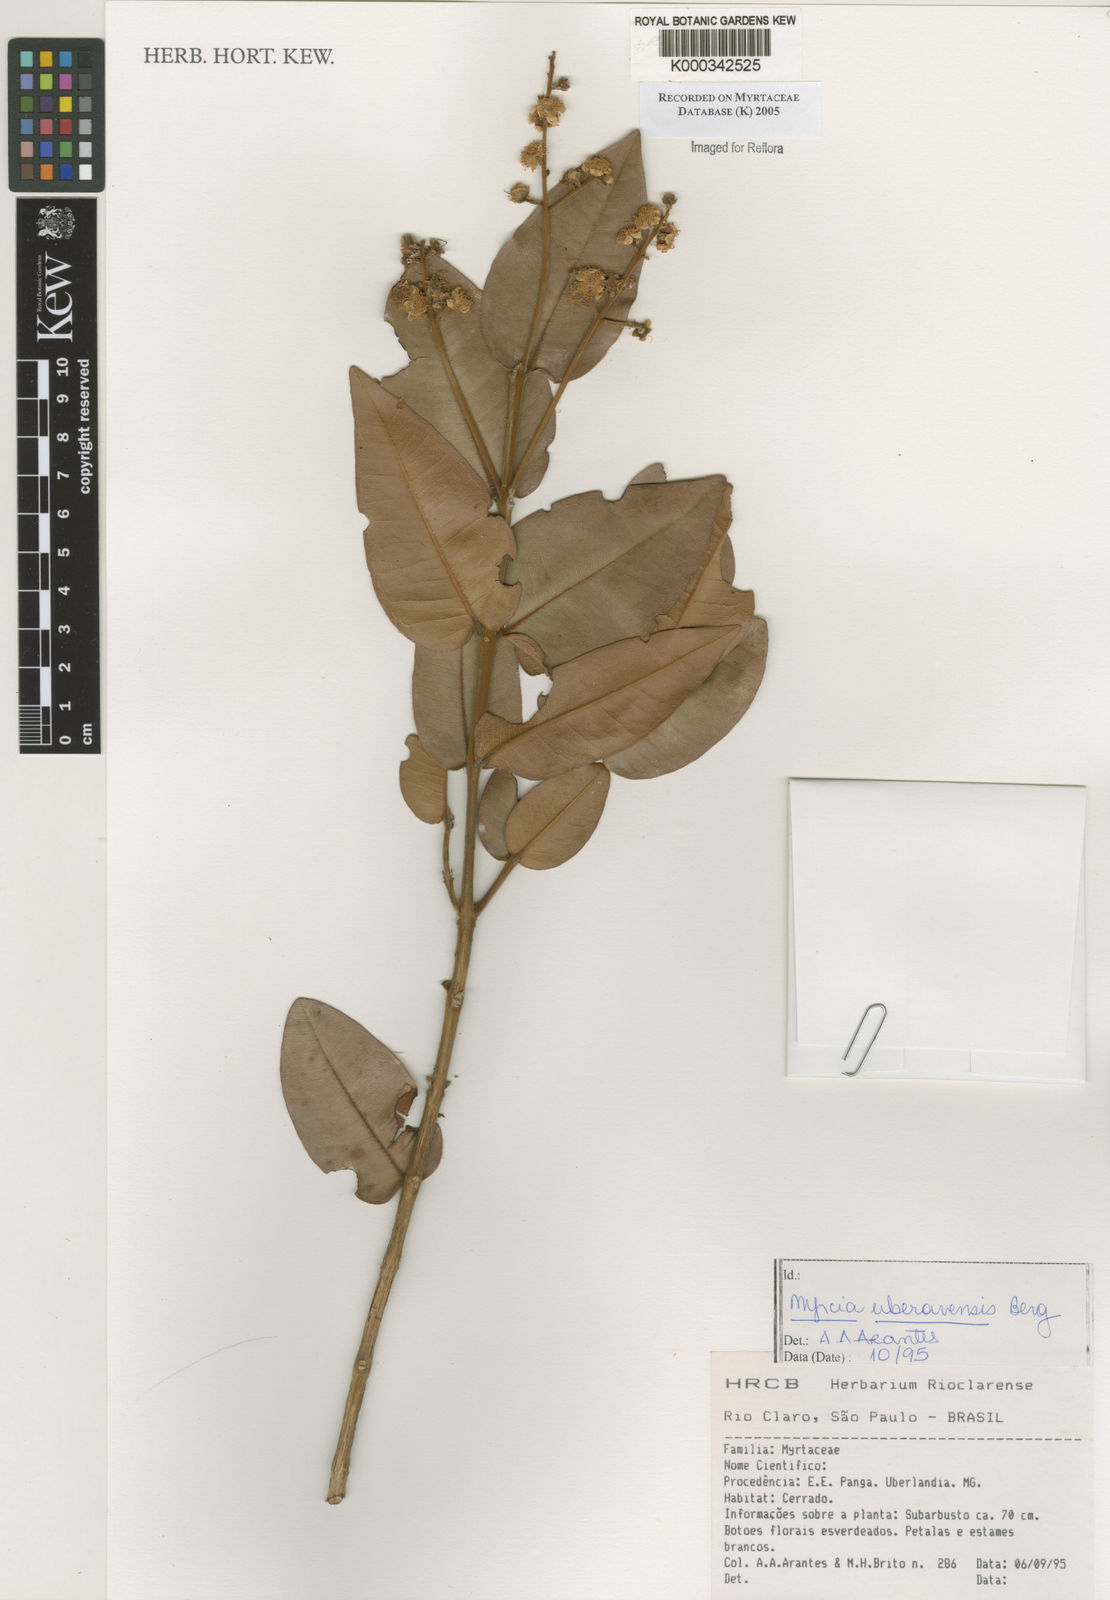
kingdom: Plantae
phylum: Tracheophyta
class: Magnoliopsida
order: Myrtales
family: Myrtaceae
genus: Myrcia
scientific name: Myrcia uberavensis
